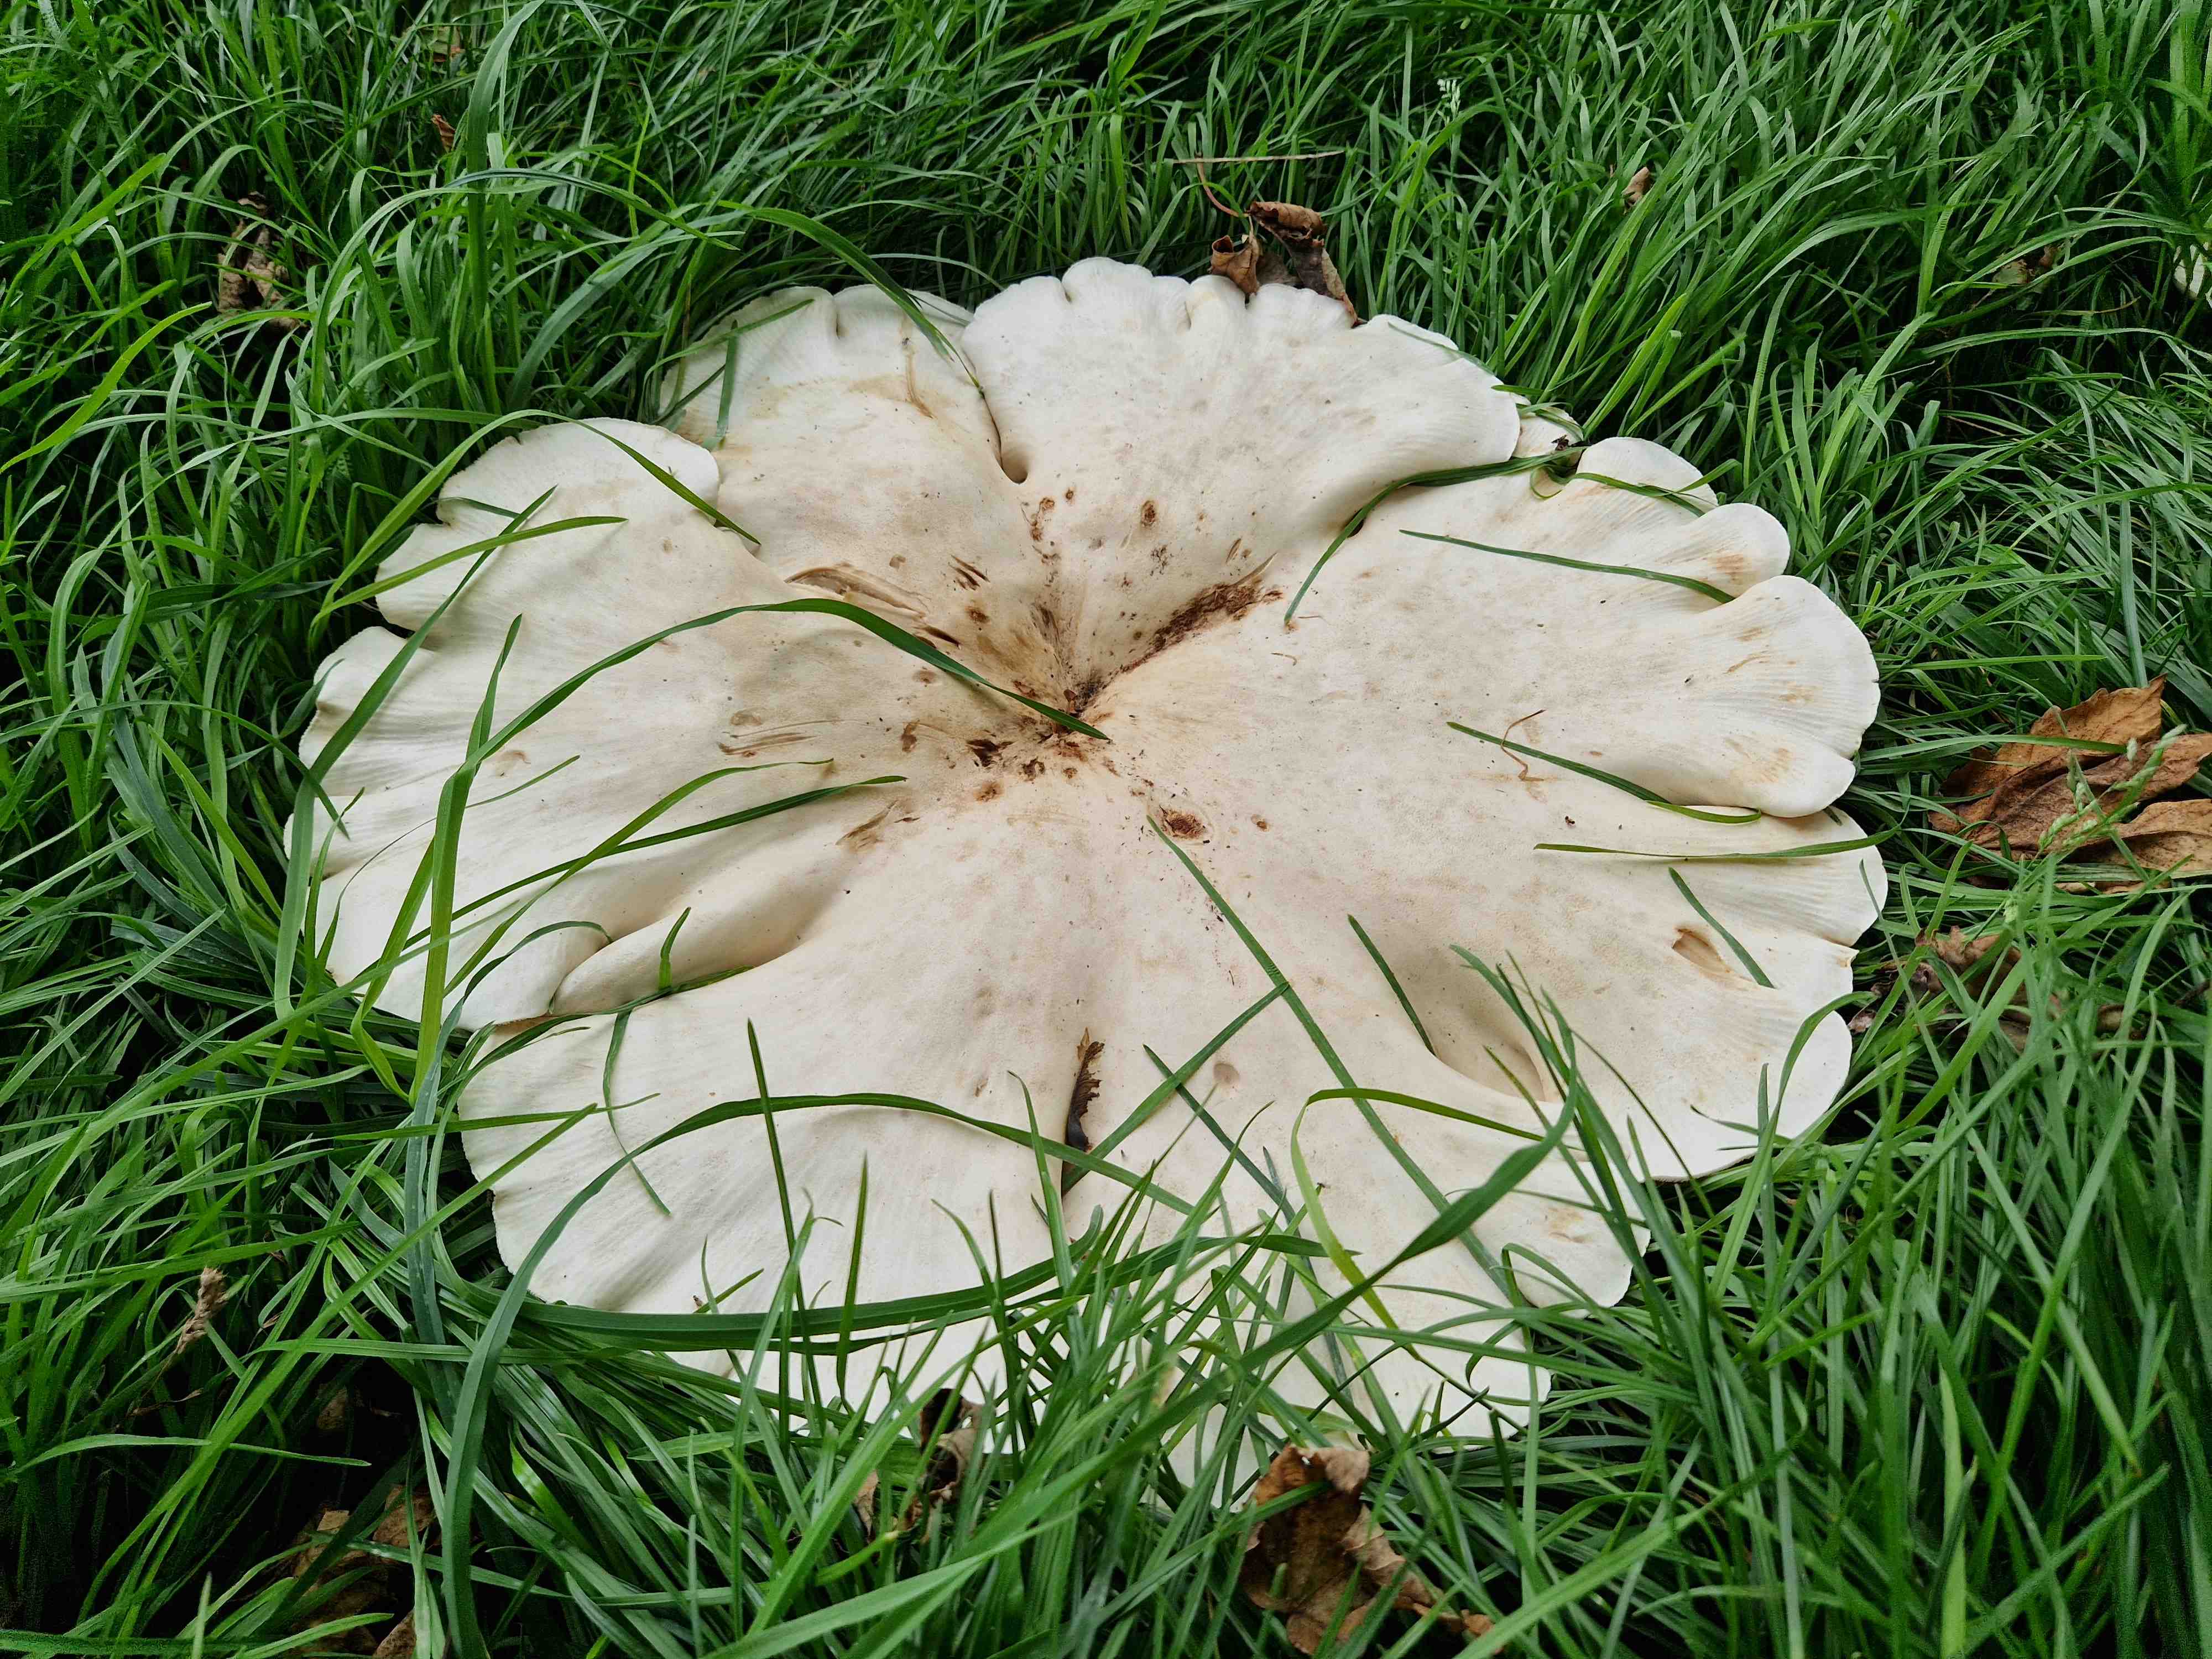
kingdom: Fungi
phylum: Basidiomycota
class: Agaricomycetes
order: Agaricales
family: Tricholomataceae
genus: Aspropaxillus
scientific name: Aspropaxillus giganteus
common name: kæmpe-tragtridderhat
